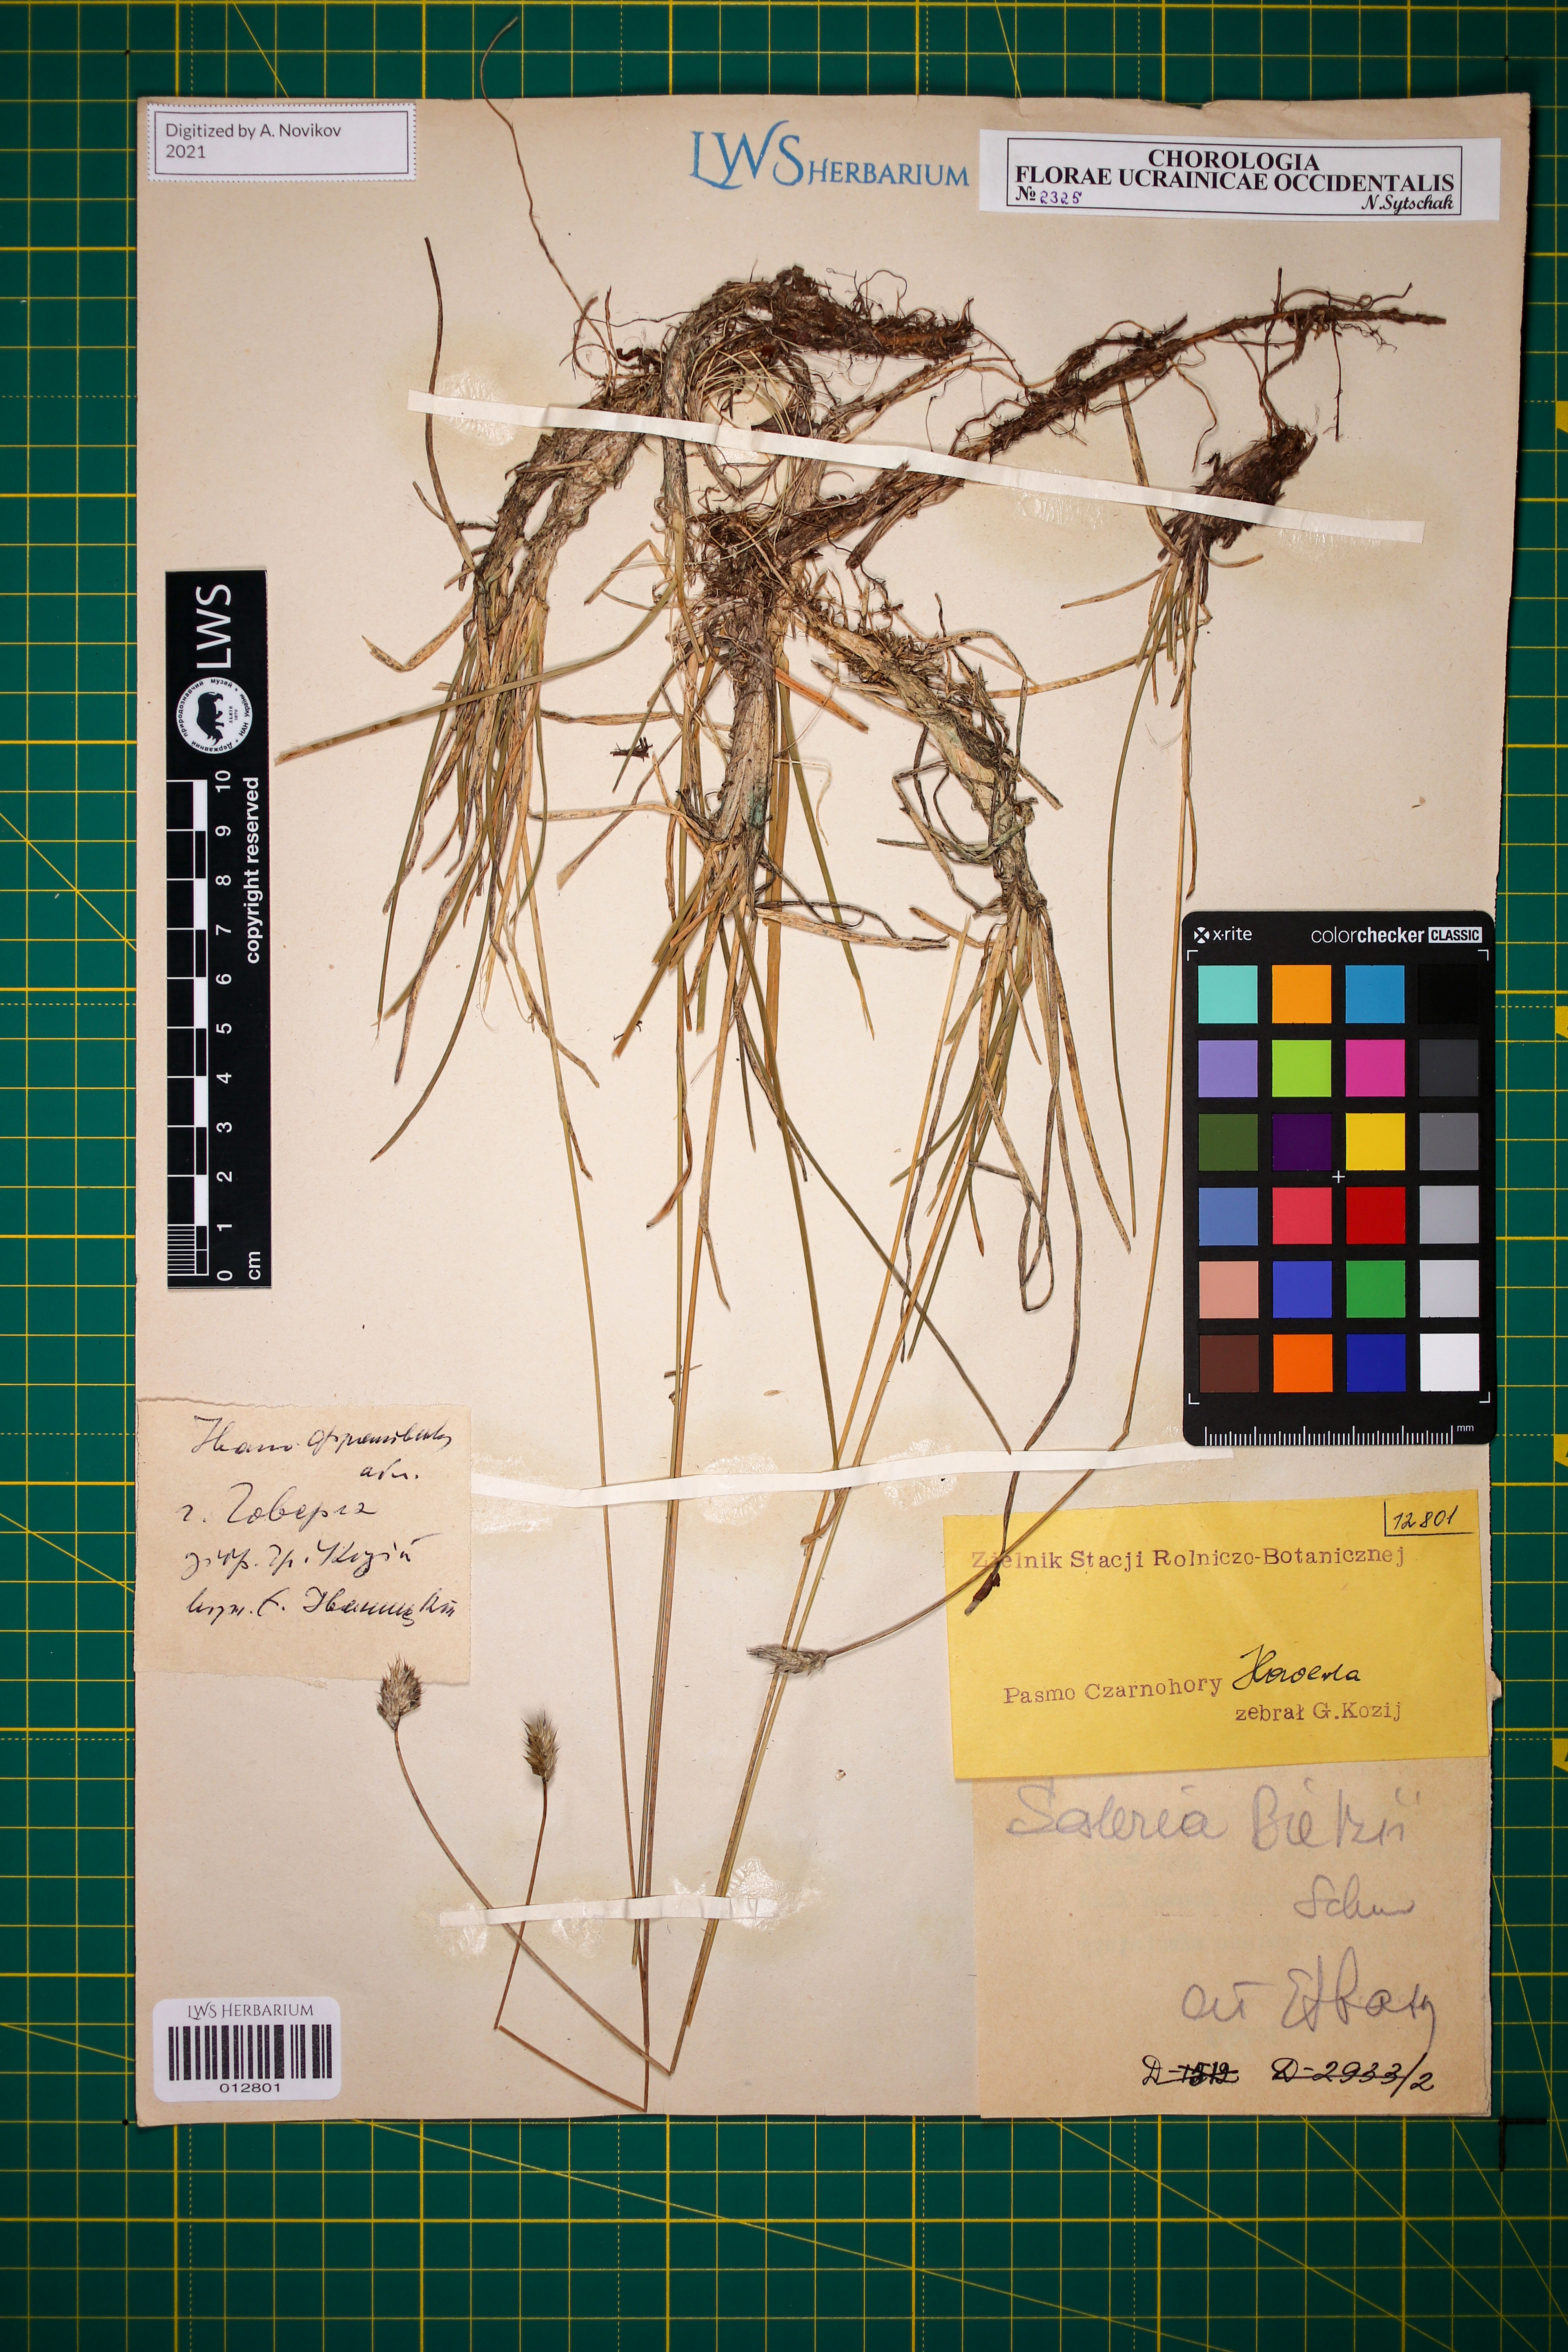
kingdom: Plantae
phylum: Tracheophyta
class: Liliopsida
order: Poales
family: Poaceae
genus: Sesleria
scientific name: Sesleria bielzii
